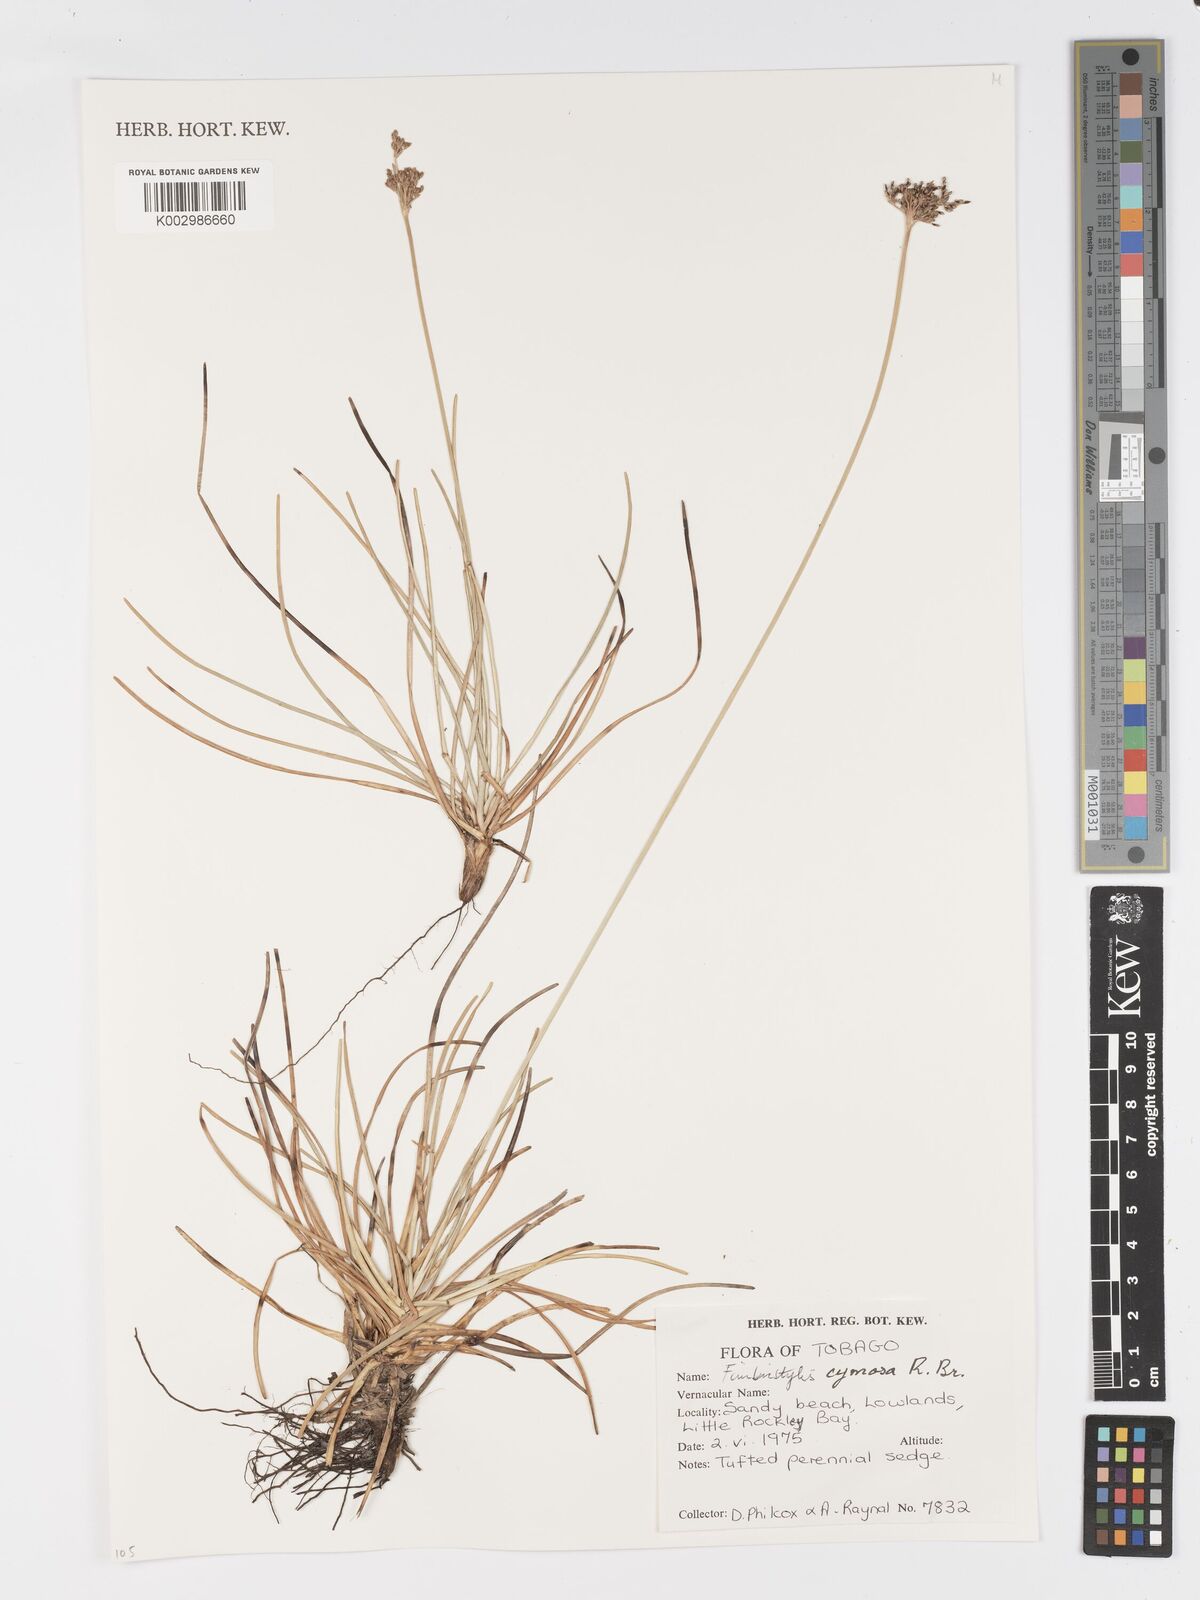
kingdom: Plantae
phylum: Tracheophyta
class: Liliopsida
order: Poales
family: Cyperaceae
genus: Fimbristylis
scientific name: Fimbristylis cymosa
